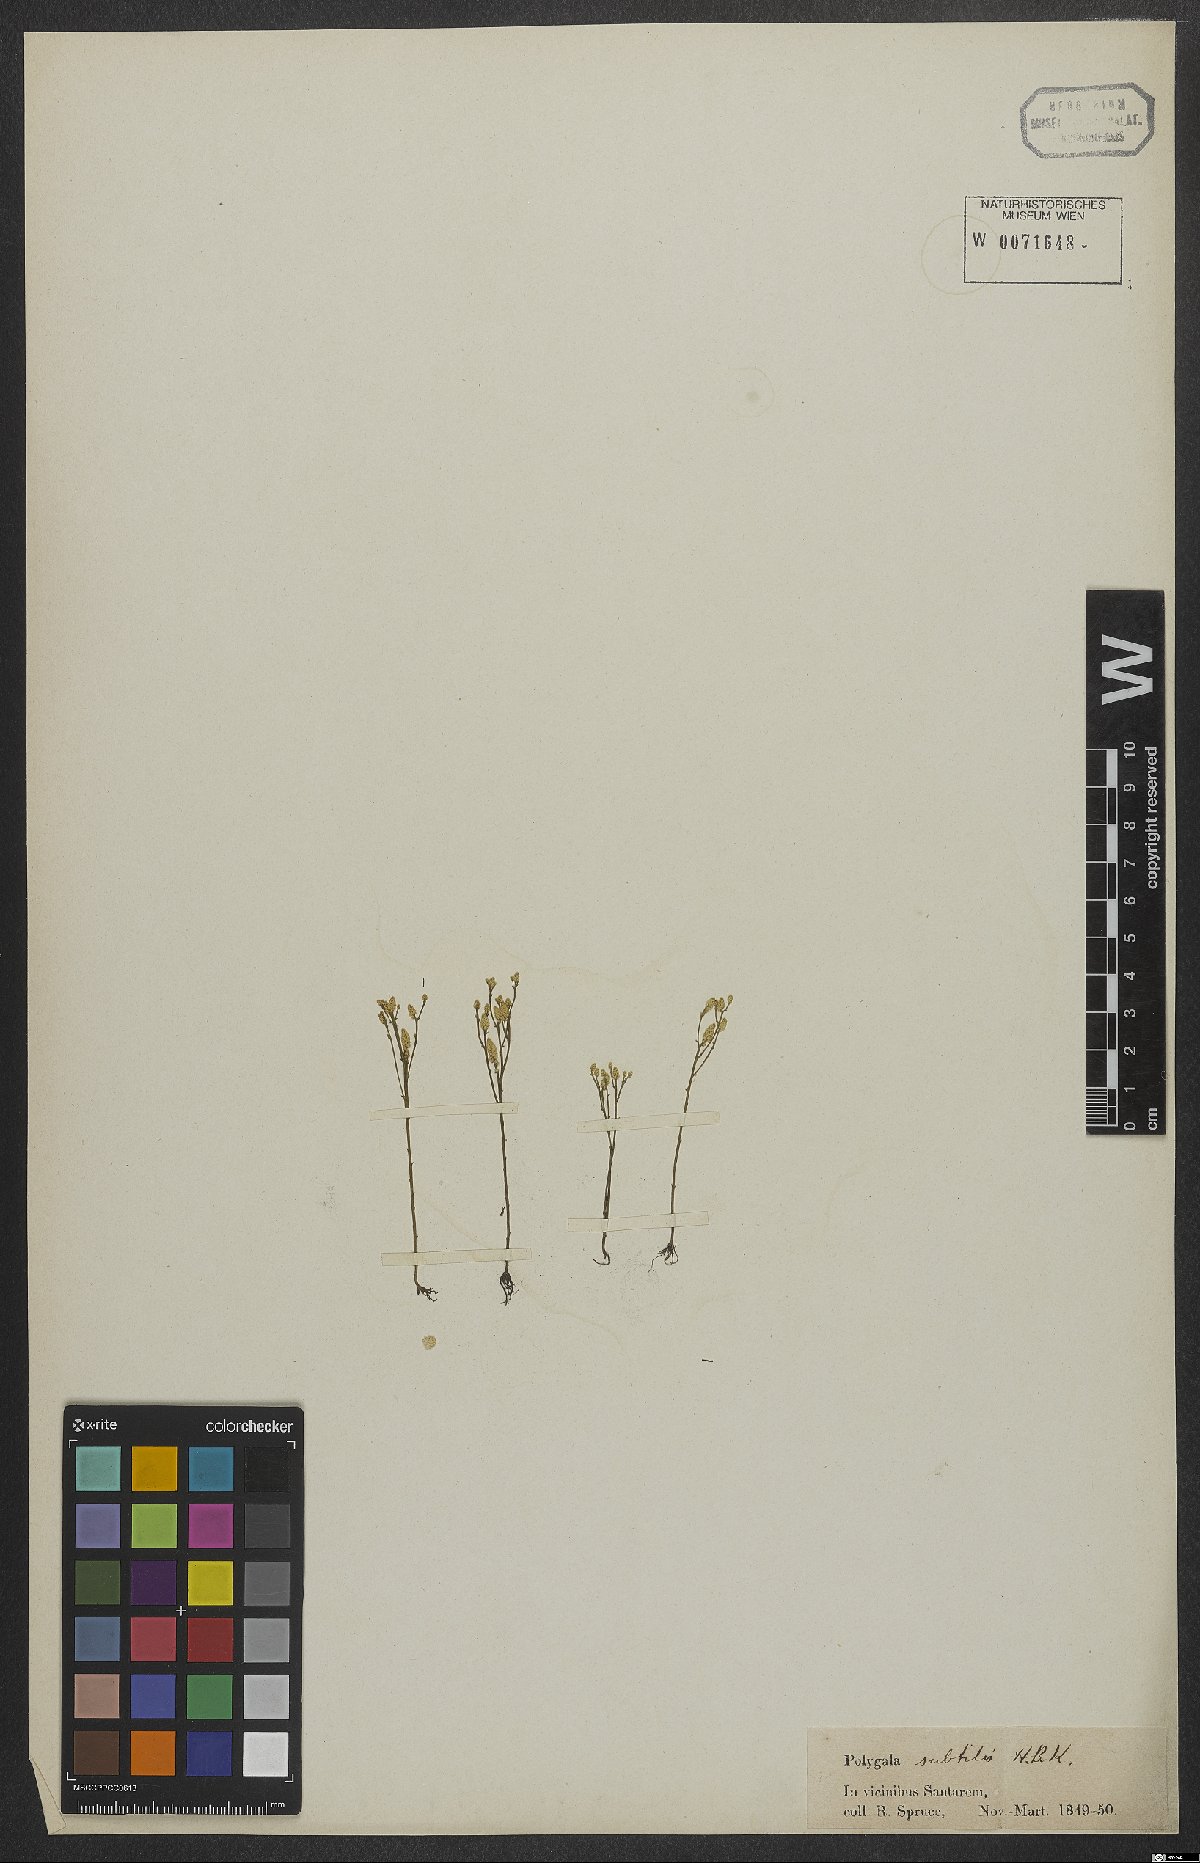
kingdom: Plantae
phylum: Tracheophyta
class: Magnoliopsida
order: Fabales
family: Polygalaceae
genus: Polygala
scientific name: Polygala subtilis
